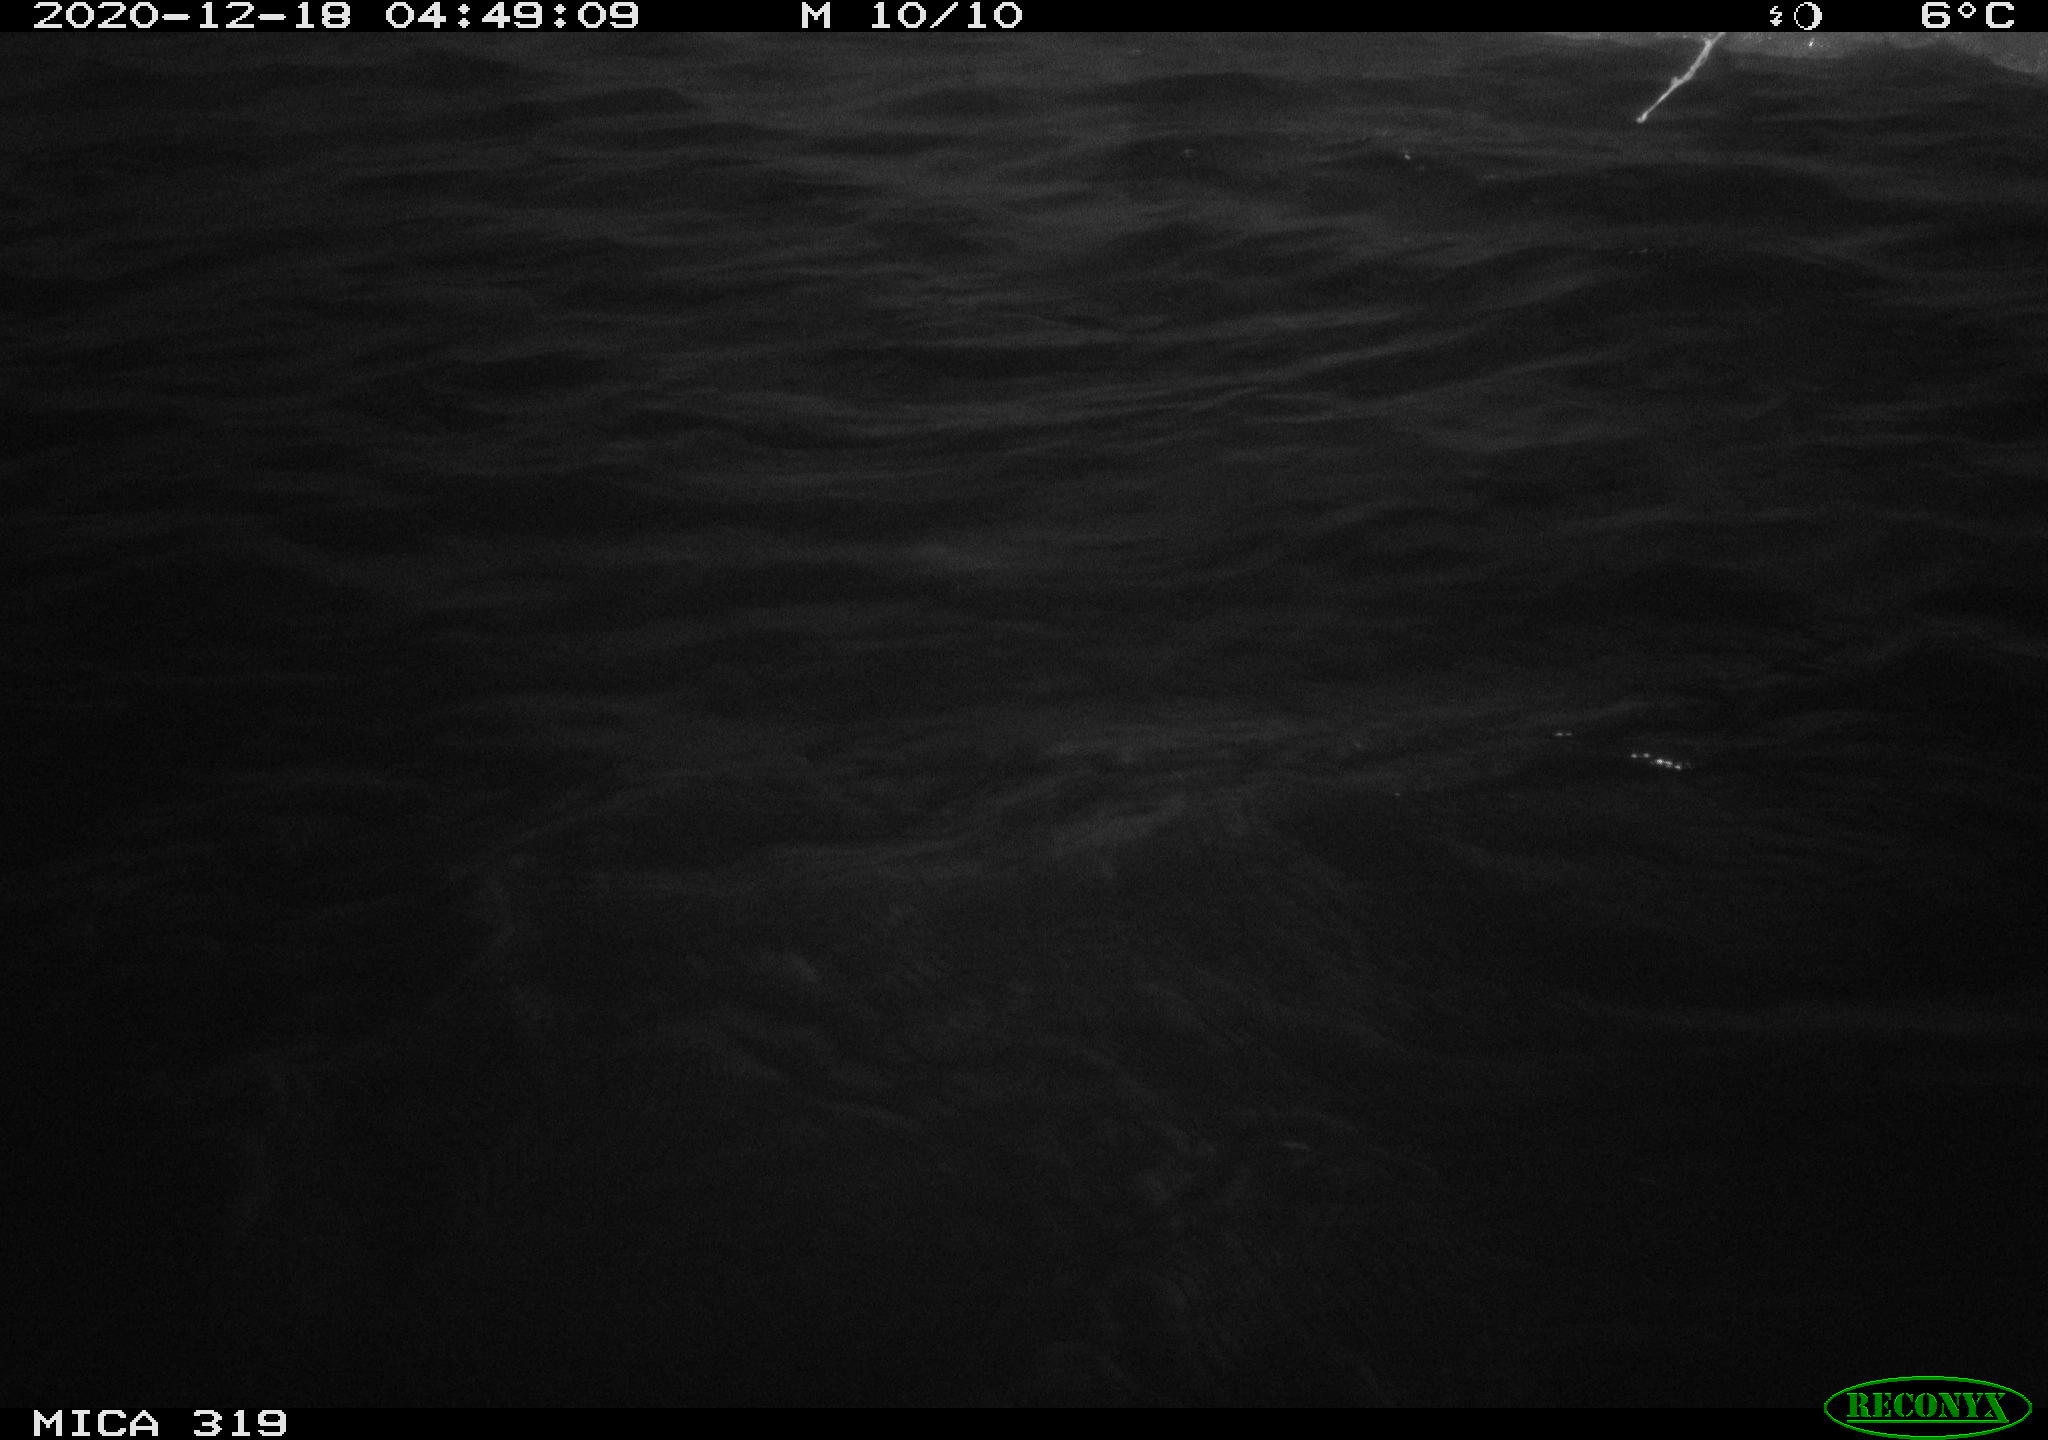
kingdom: Animalia
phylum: Chordata
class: Aves
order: Anseriformes
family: Anatidae
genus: Anas
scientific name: Anas platyrhynchos
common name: Mallard
